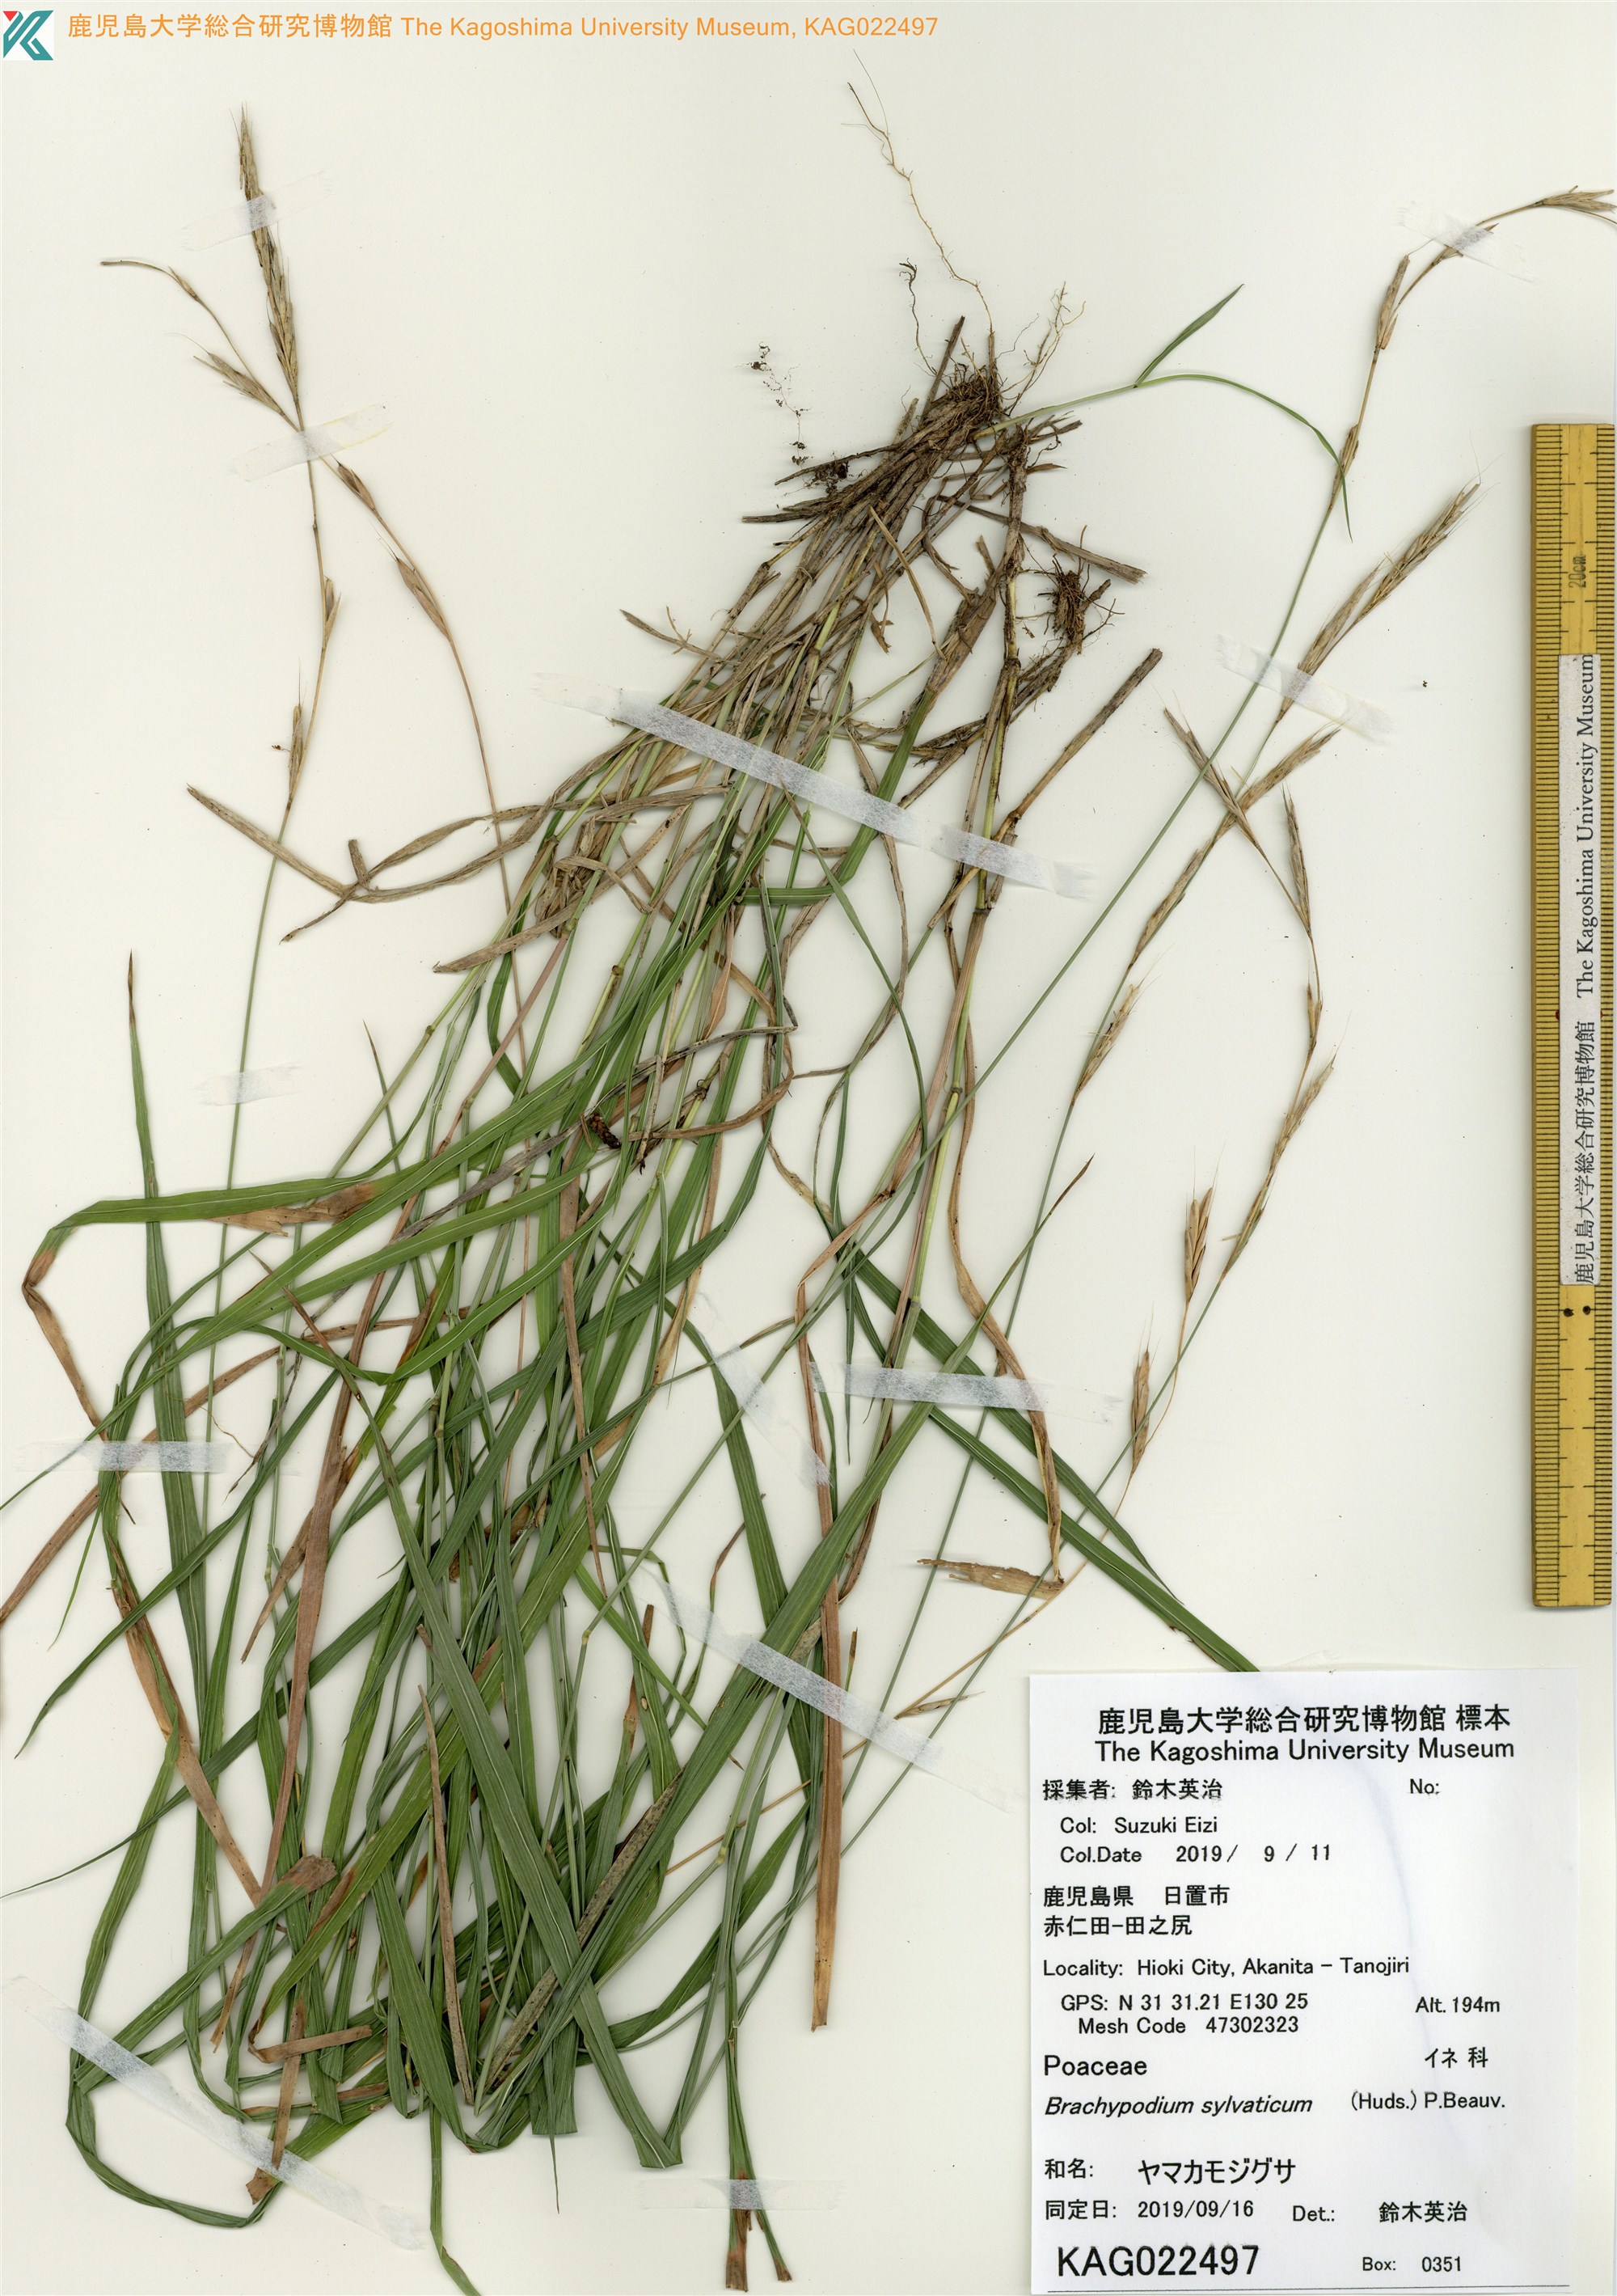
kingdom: Plantae
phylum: Tracheophyta
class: Liliopsida
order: Poales
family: Poaceae
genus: Brachypodium
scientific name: Brachypodium sylvaticum
